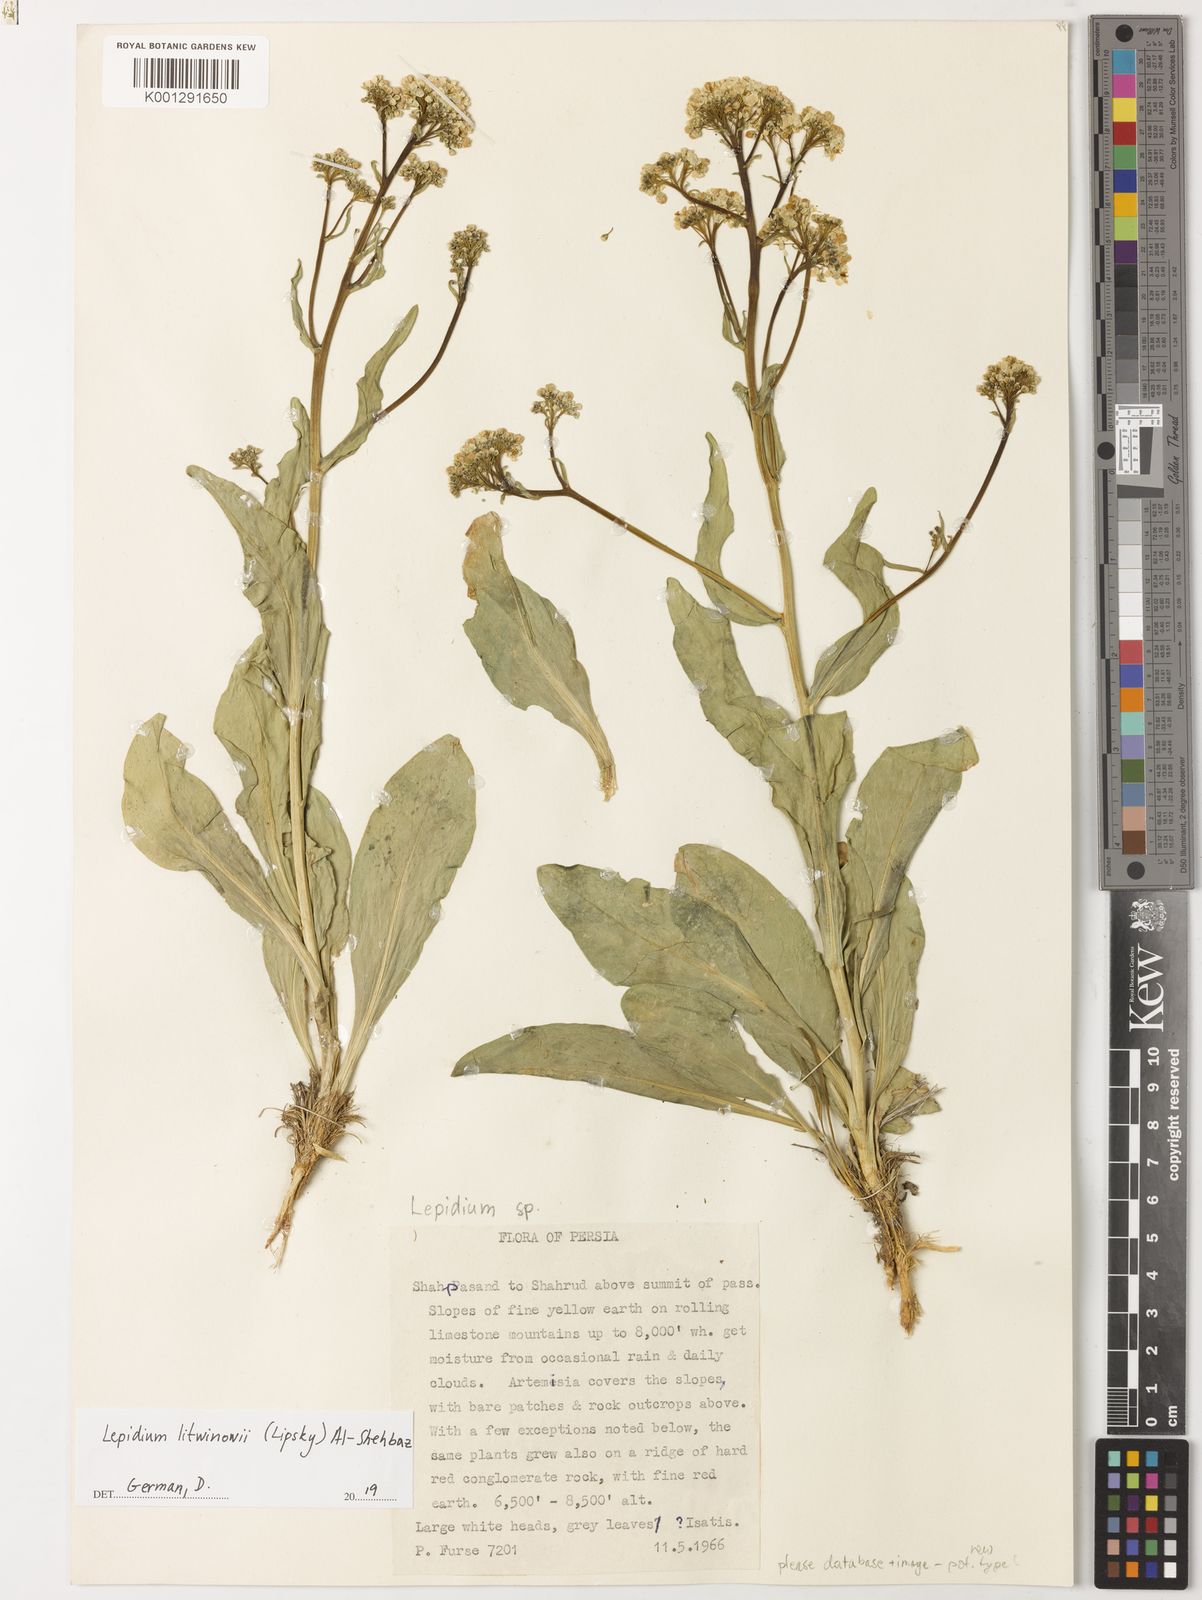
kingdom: Plantae
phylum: Tracheophyta
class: Magnoliopsida
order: Brassicales
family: Brassicaceae
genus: Lepidium
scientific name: Lepidium litwinowii
